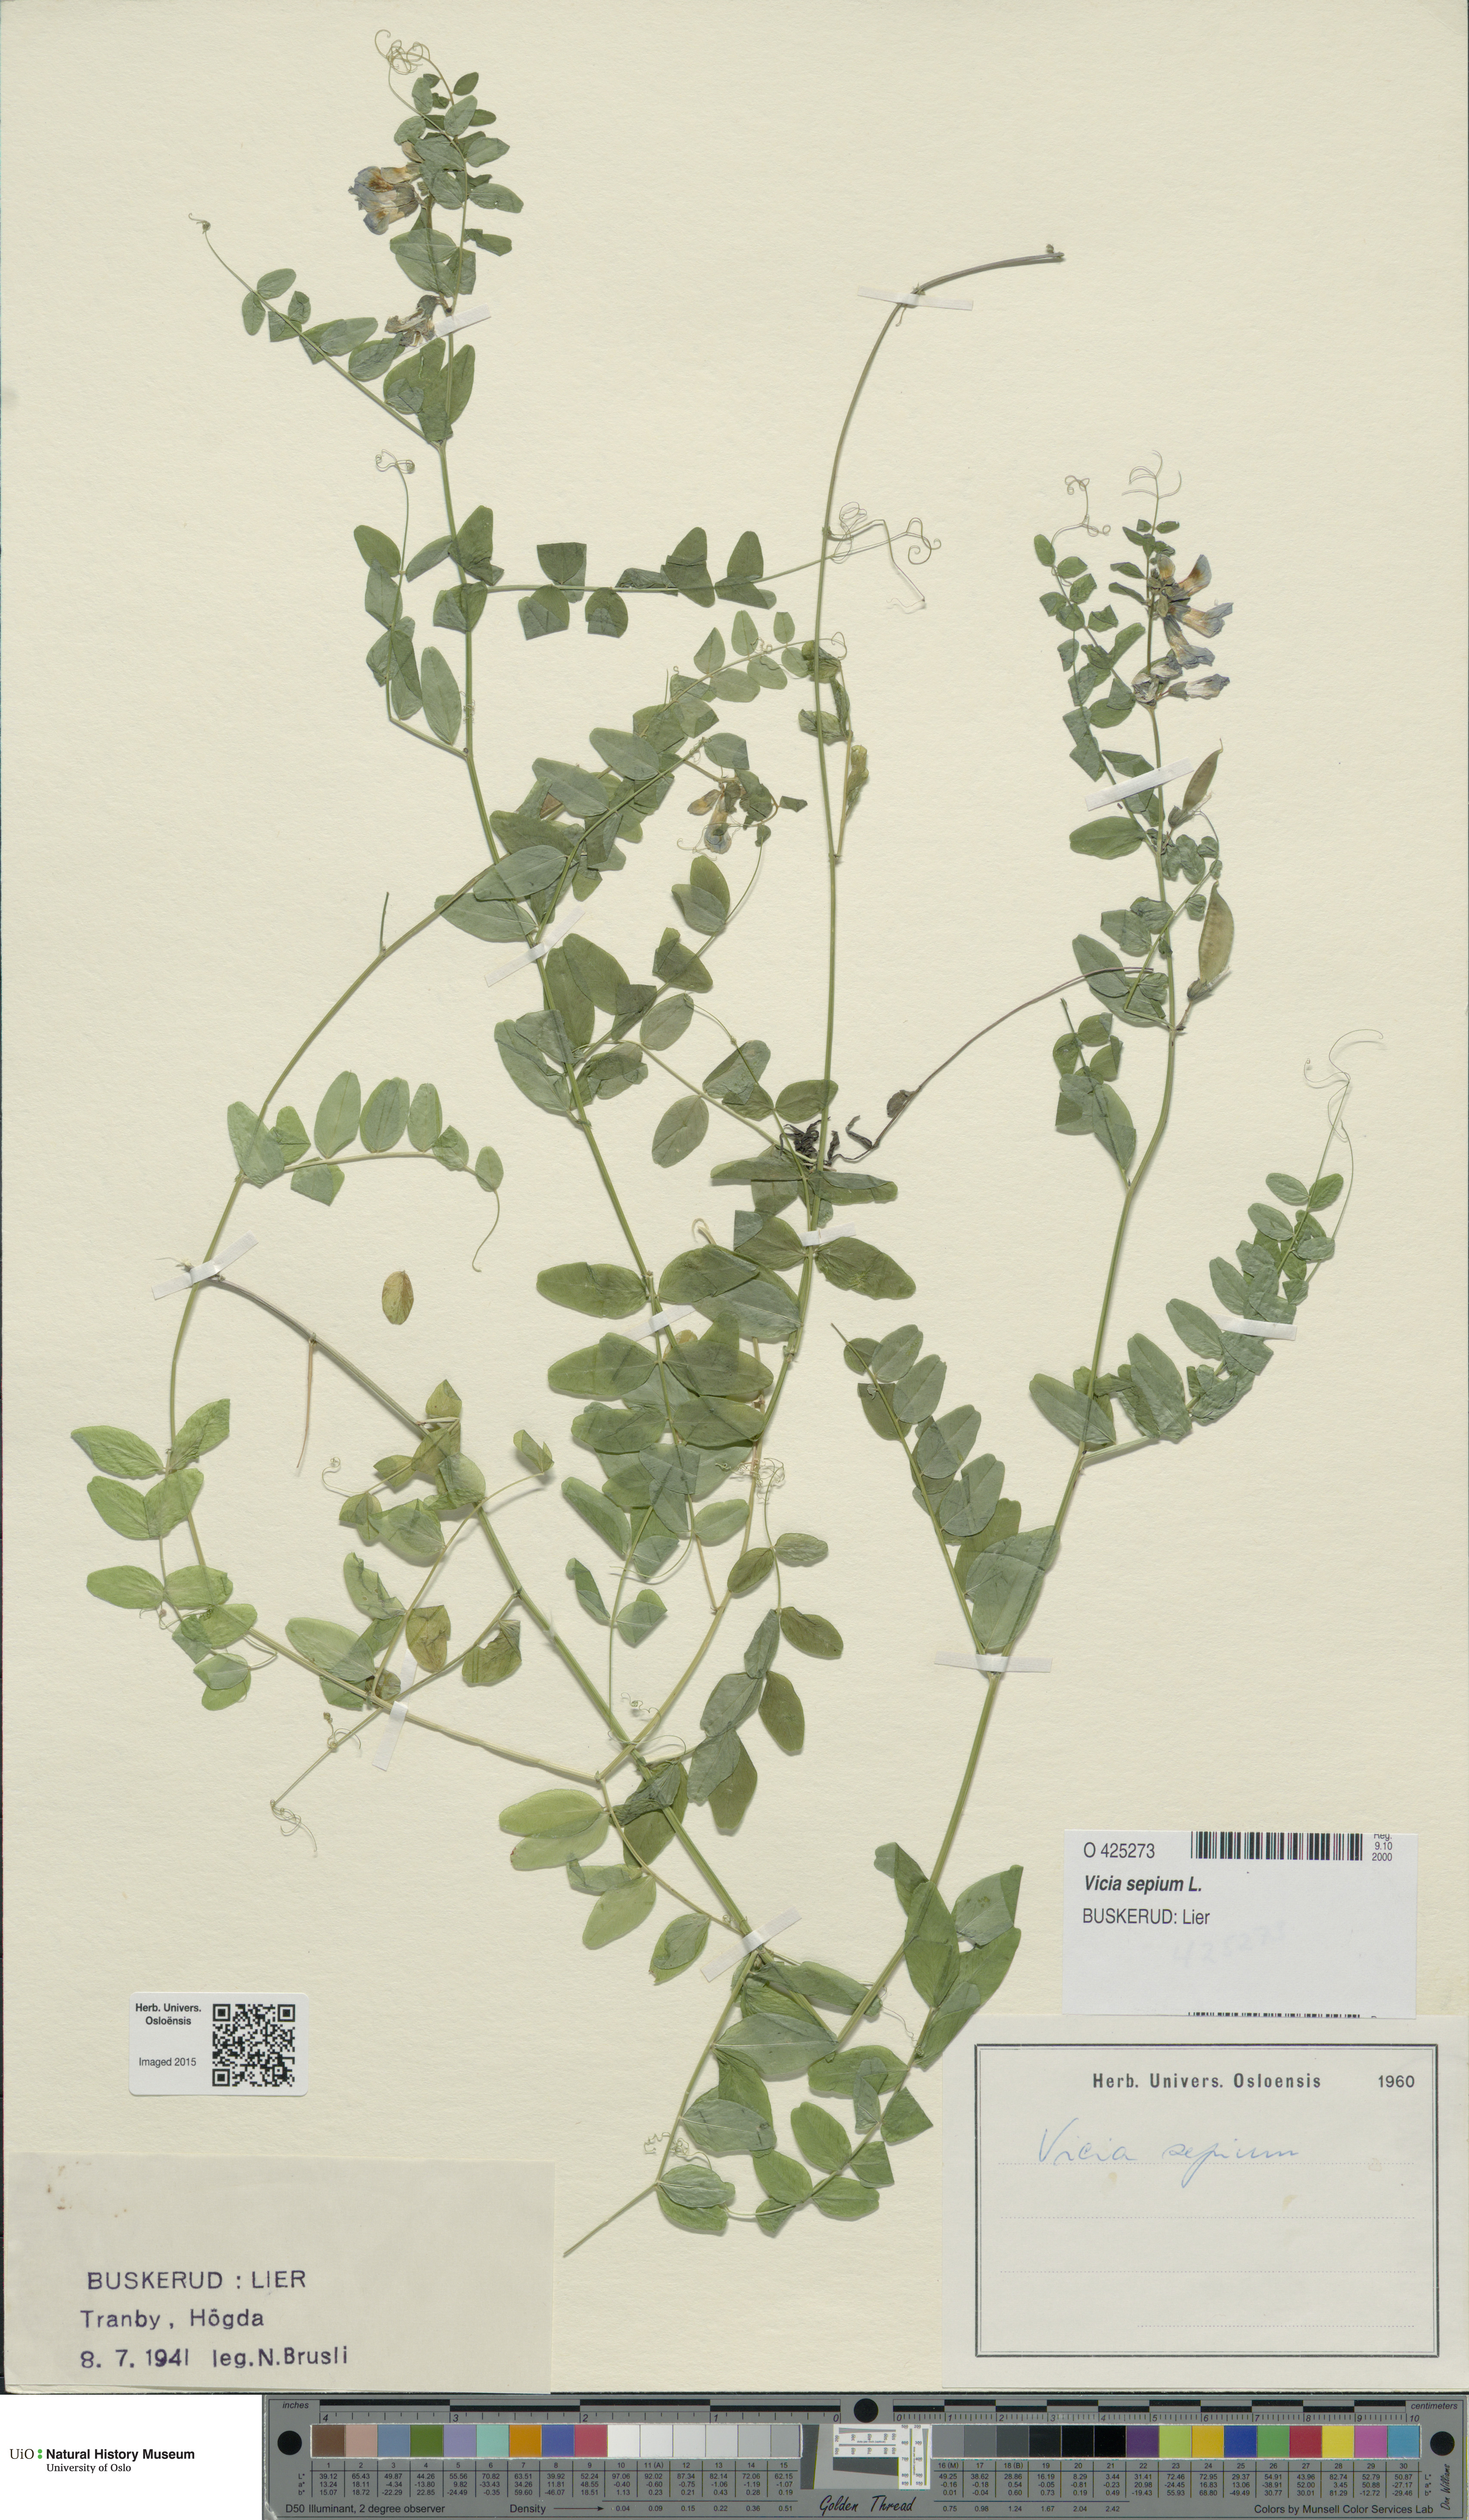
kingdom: Plantae
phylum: Tracheophyta
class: Magnoliopsida
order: Fabales
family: Fabaceae
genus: Vicia
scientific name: Vicia sepium
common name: Bush vetch
